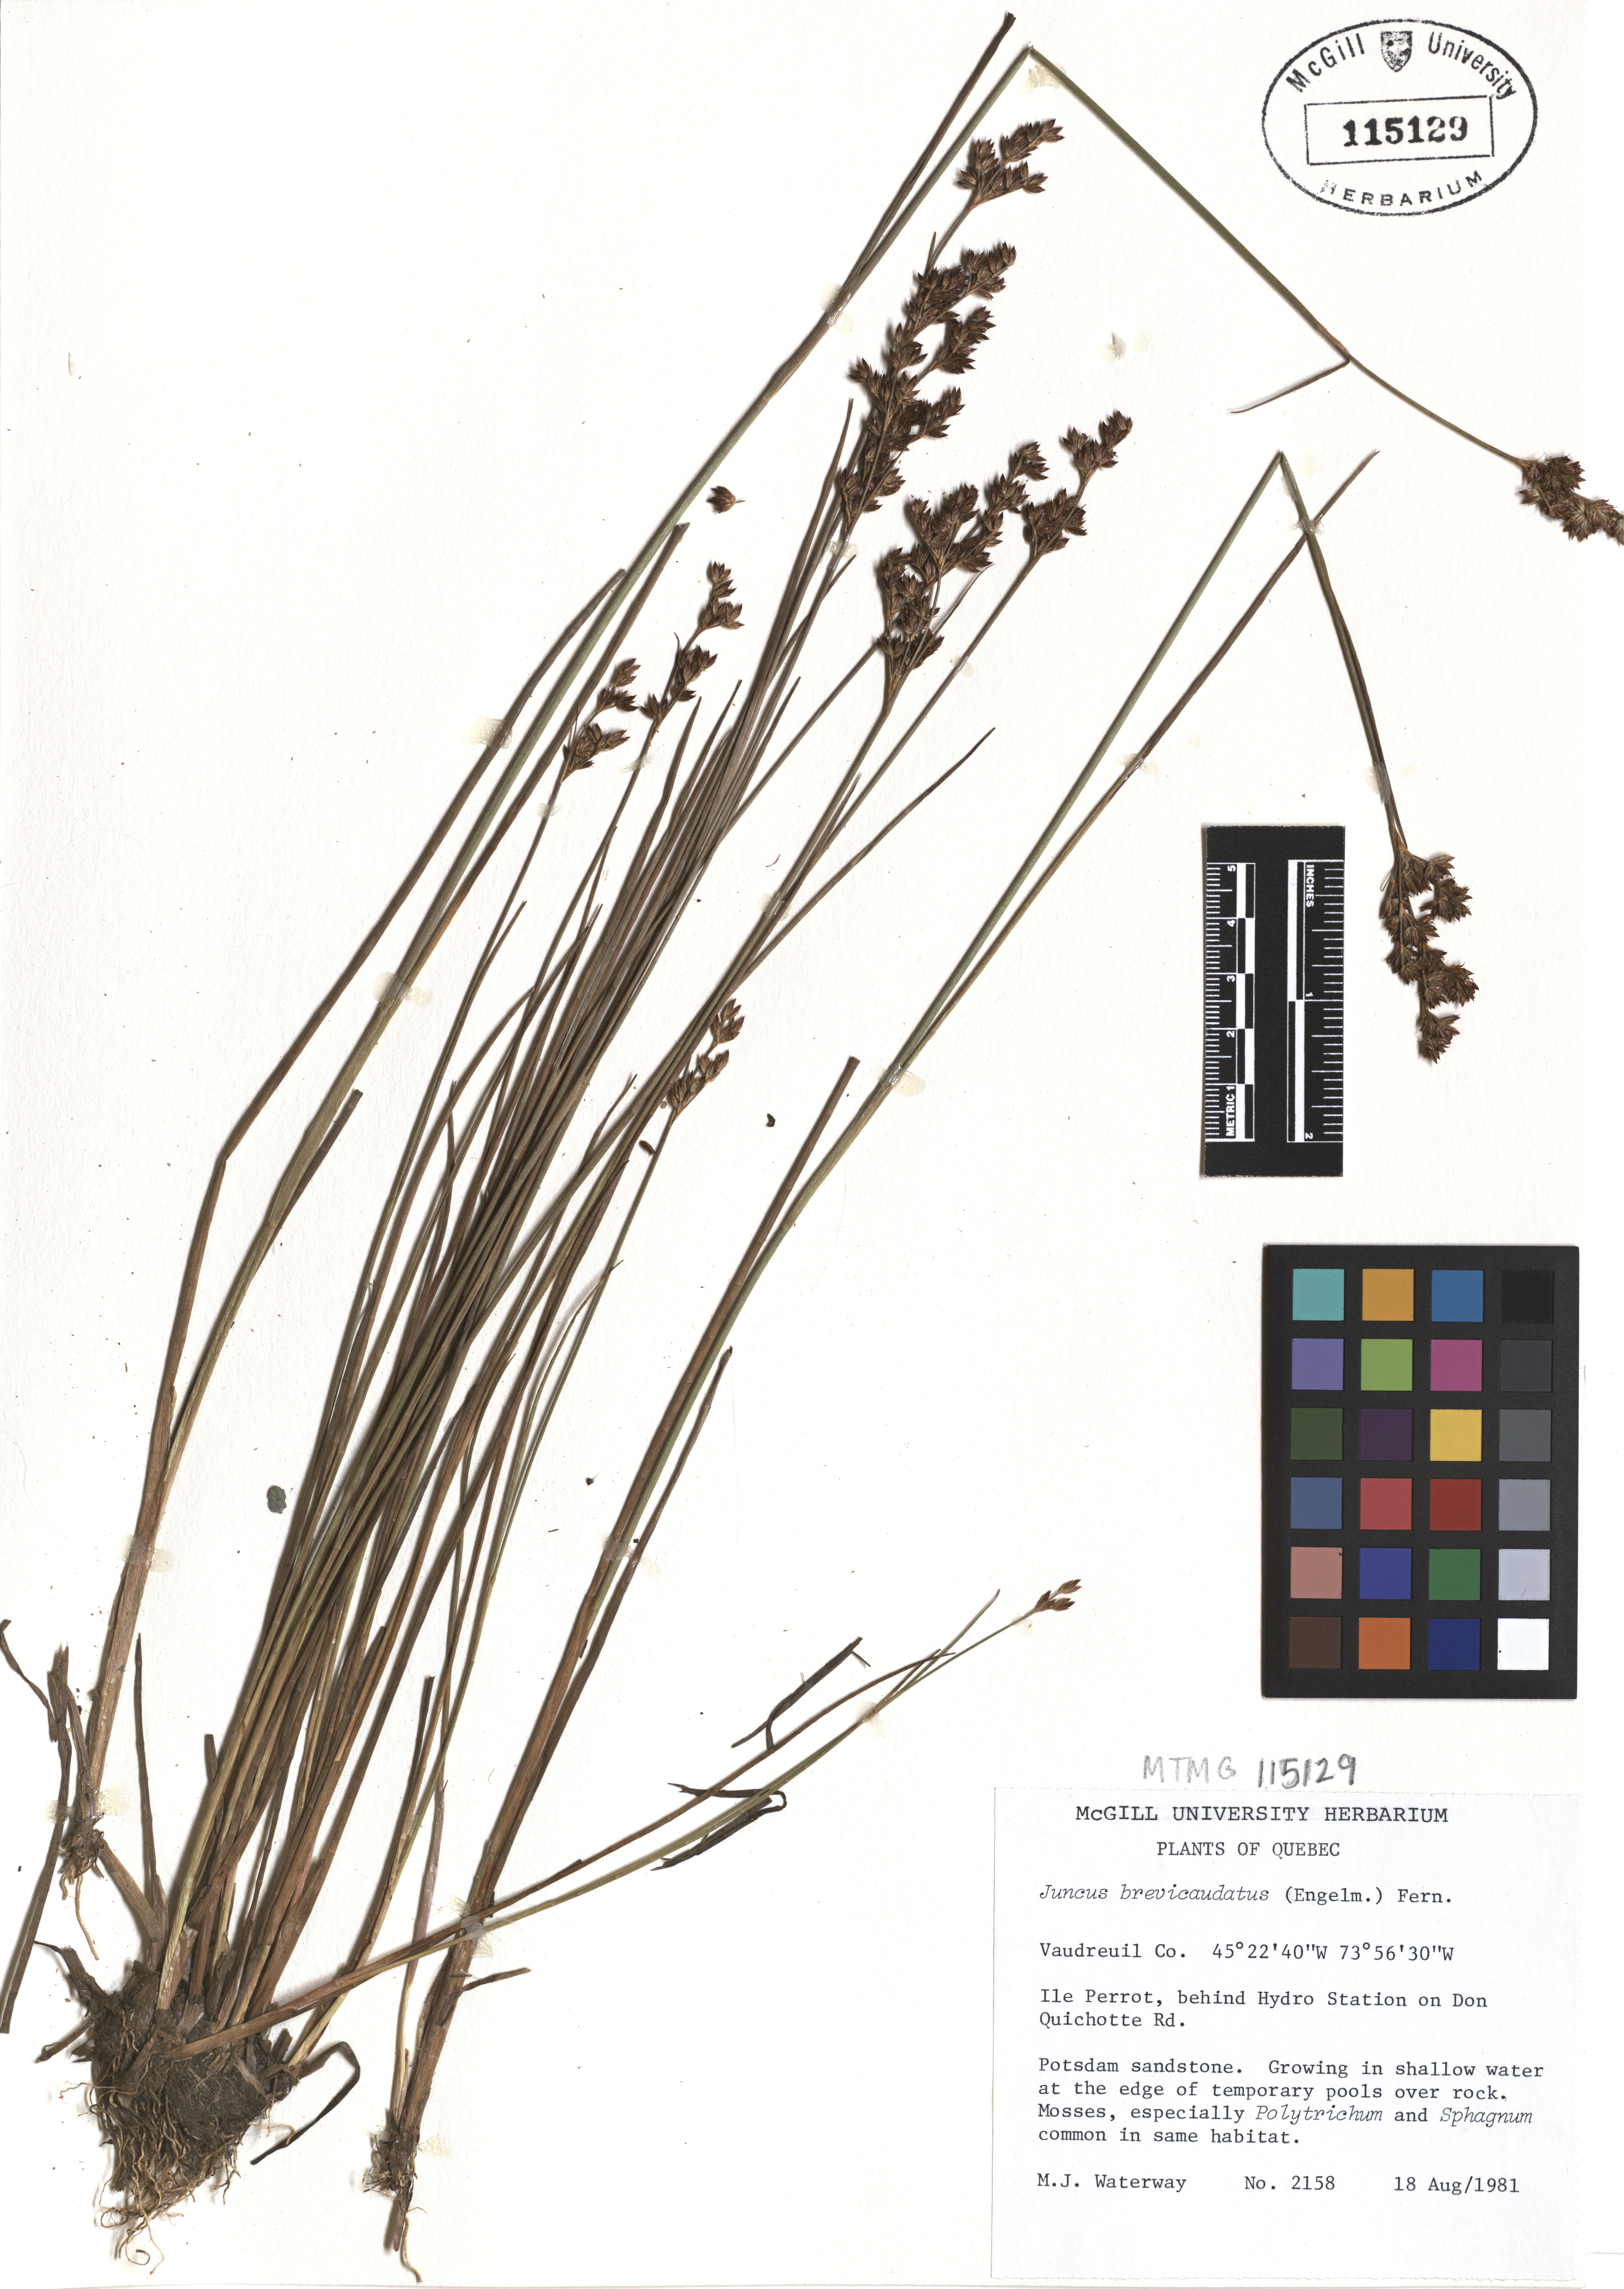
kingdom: Plantae
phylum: Tracheophyta
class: Liliopsida
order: Poales
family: Juncaceae
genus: Juncus
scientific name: Juncus brevicaudatus
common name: Narrow-panicle rush
